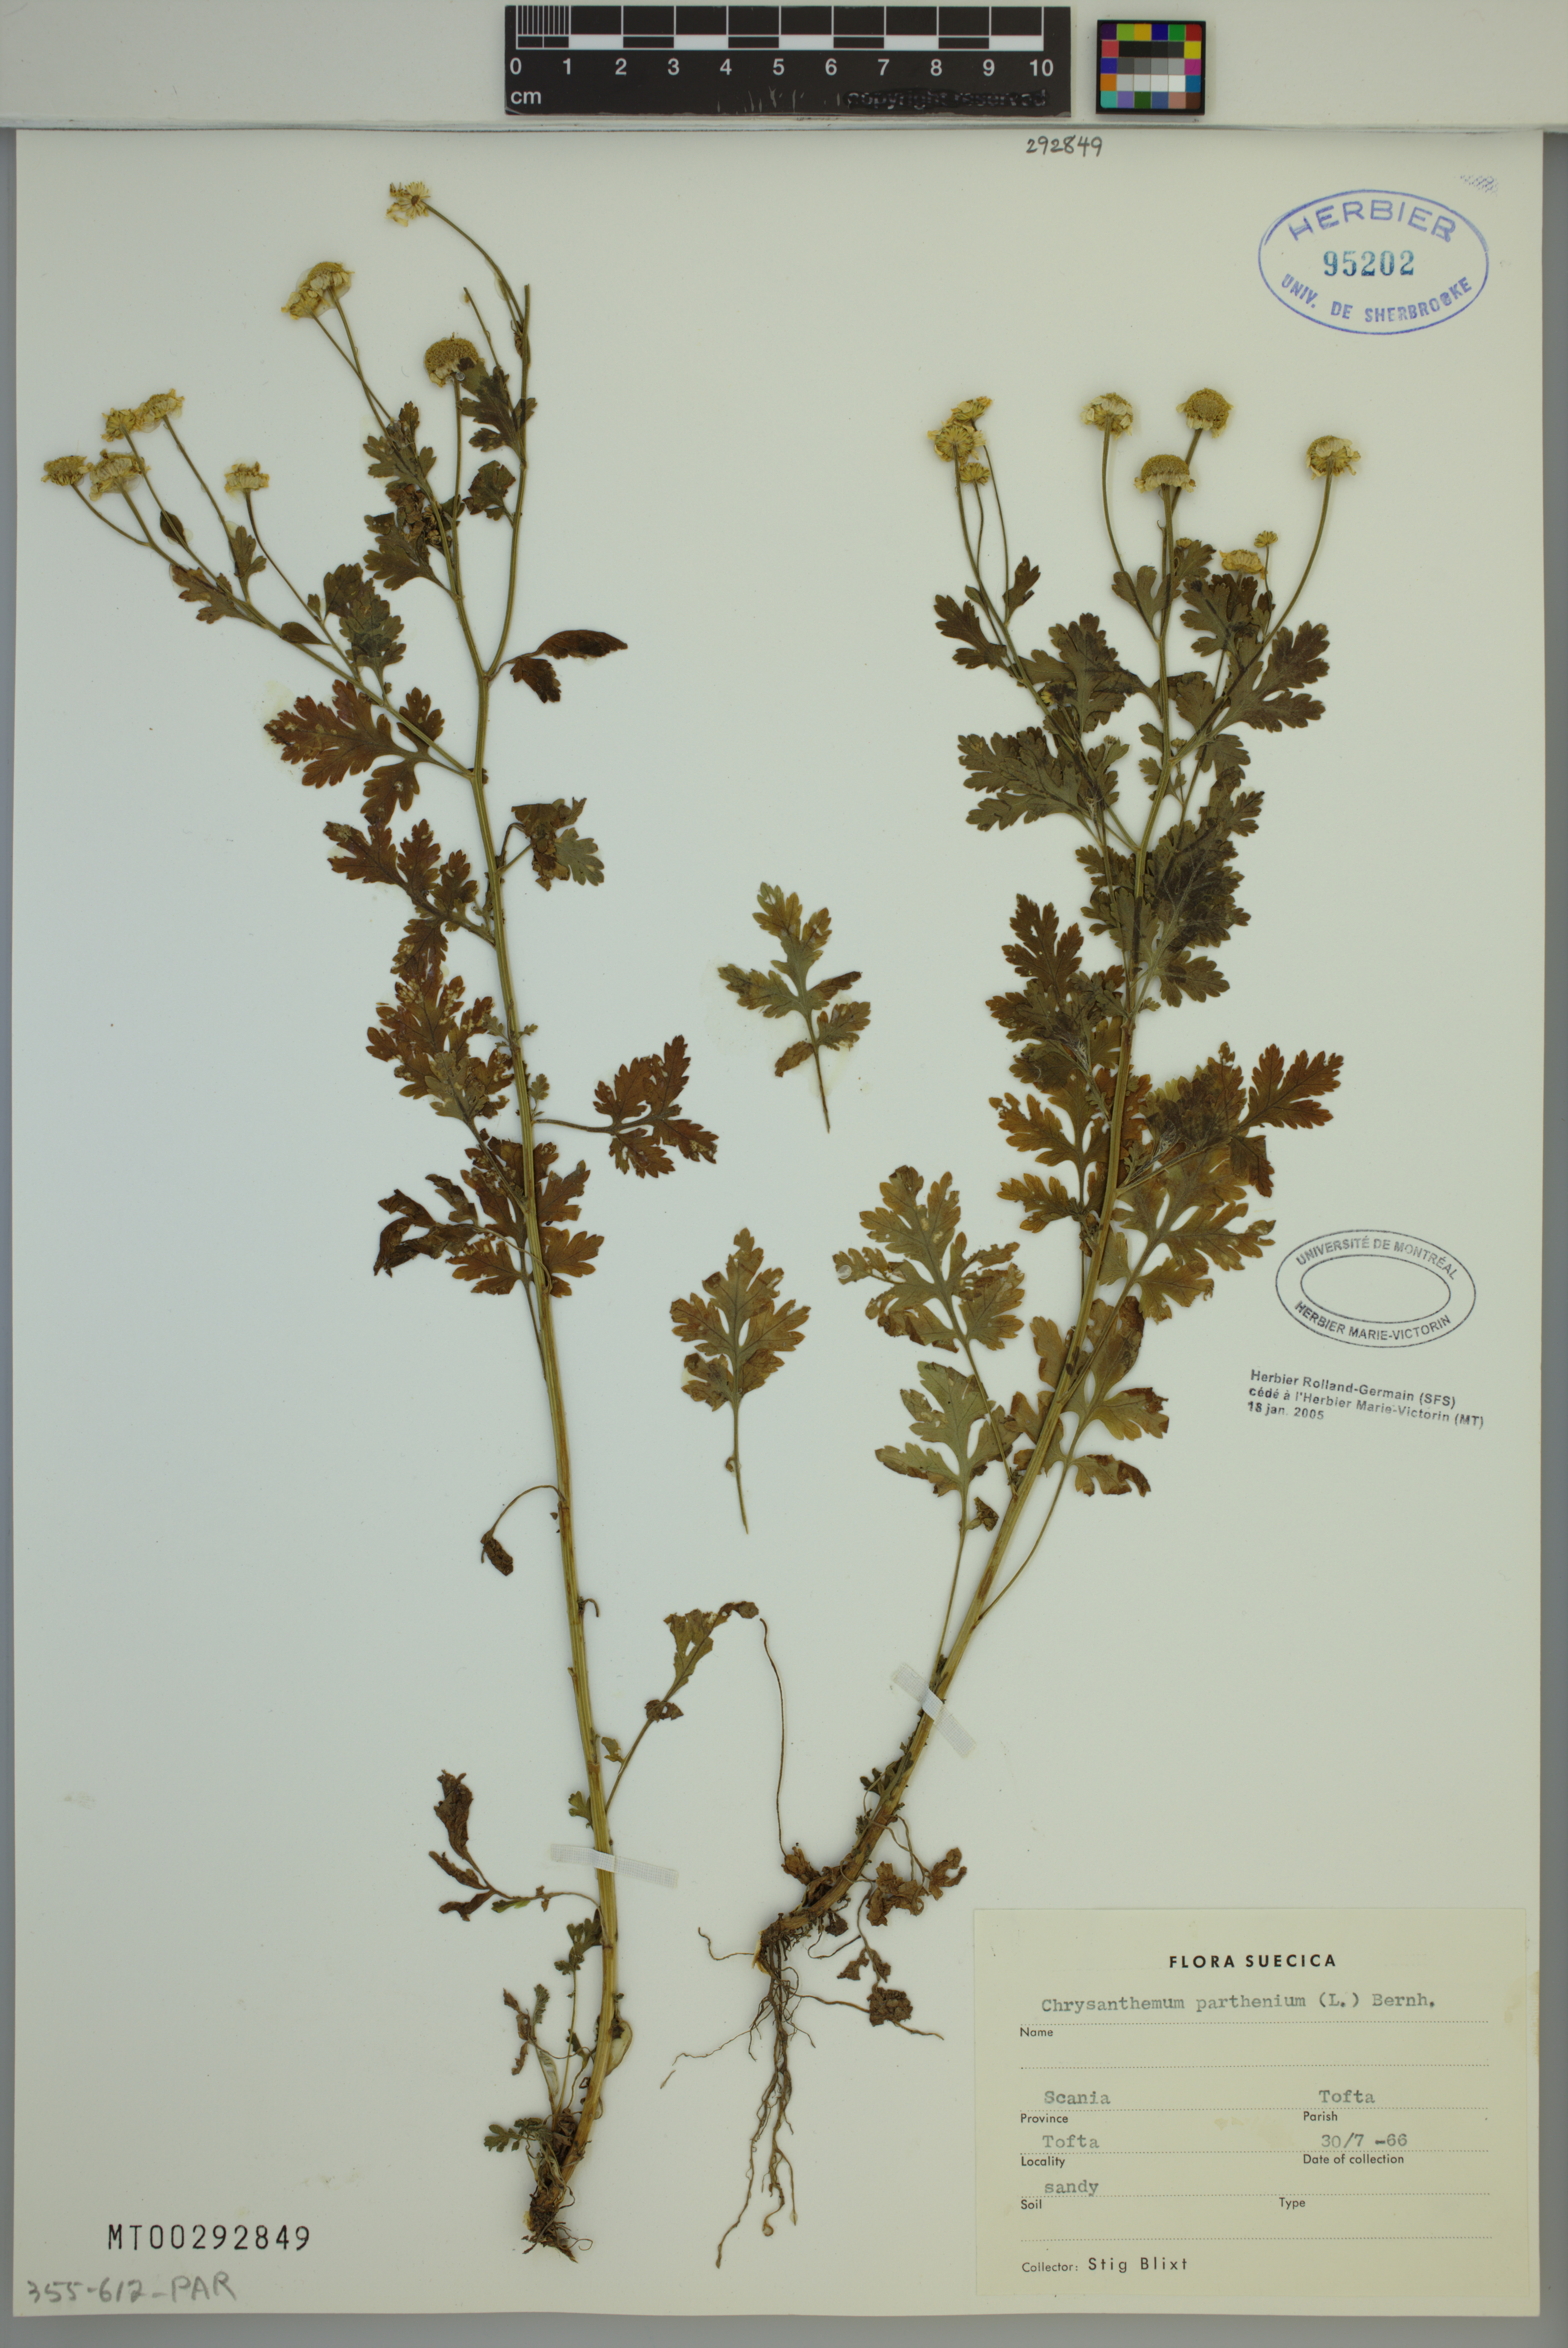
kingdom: Plantae
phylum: Tracheophyta
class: Magnoliopsida
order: Asterales
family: Asteraceae
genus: Tanacetum
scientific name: Tanacetum parthenium
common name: Feverfew
